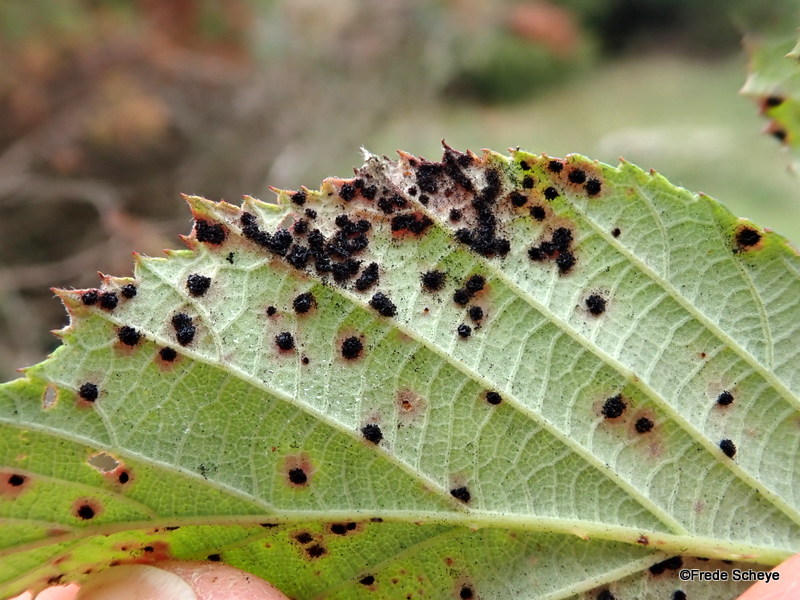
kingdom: Fungi
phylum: Basidiomycota
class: Pucciniomycetes
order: Pucciniales
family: Phragmidiaceae
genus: Phragmidium
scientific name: Phragmidium violaceum
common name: violet flercellerust
